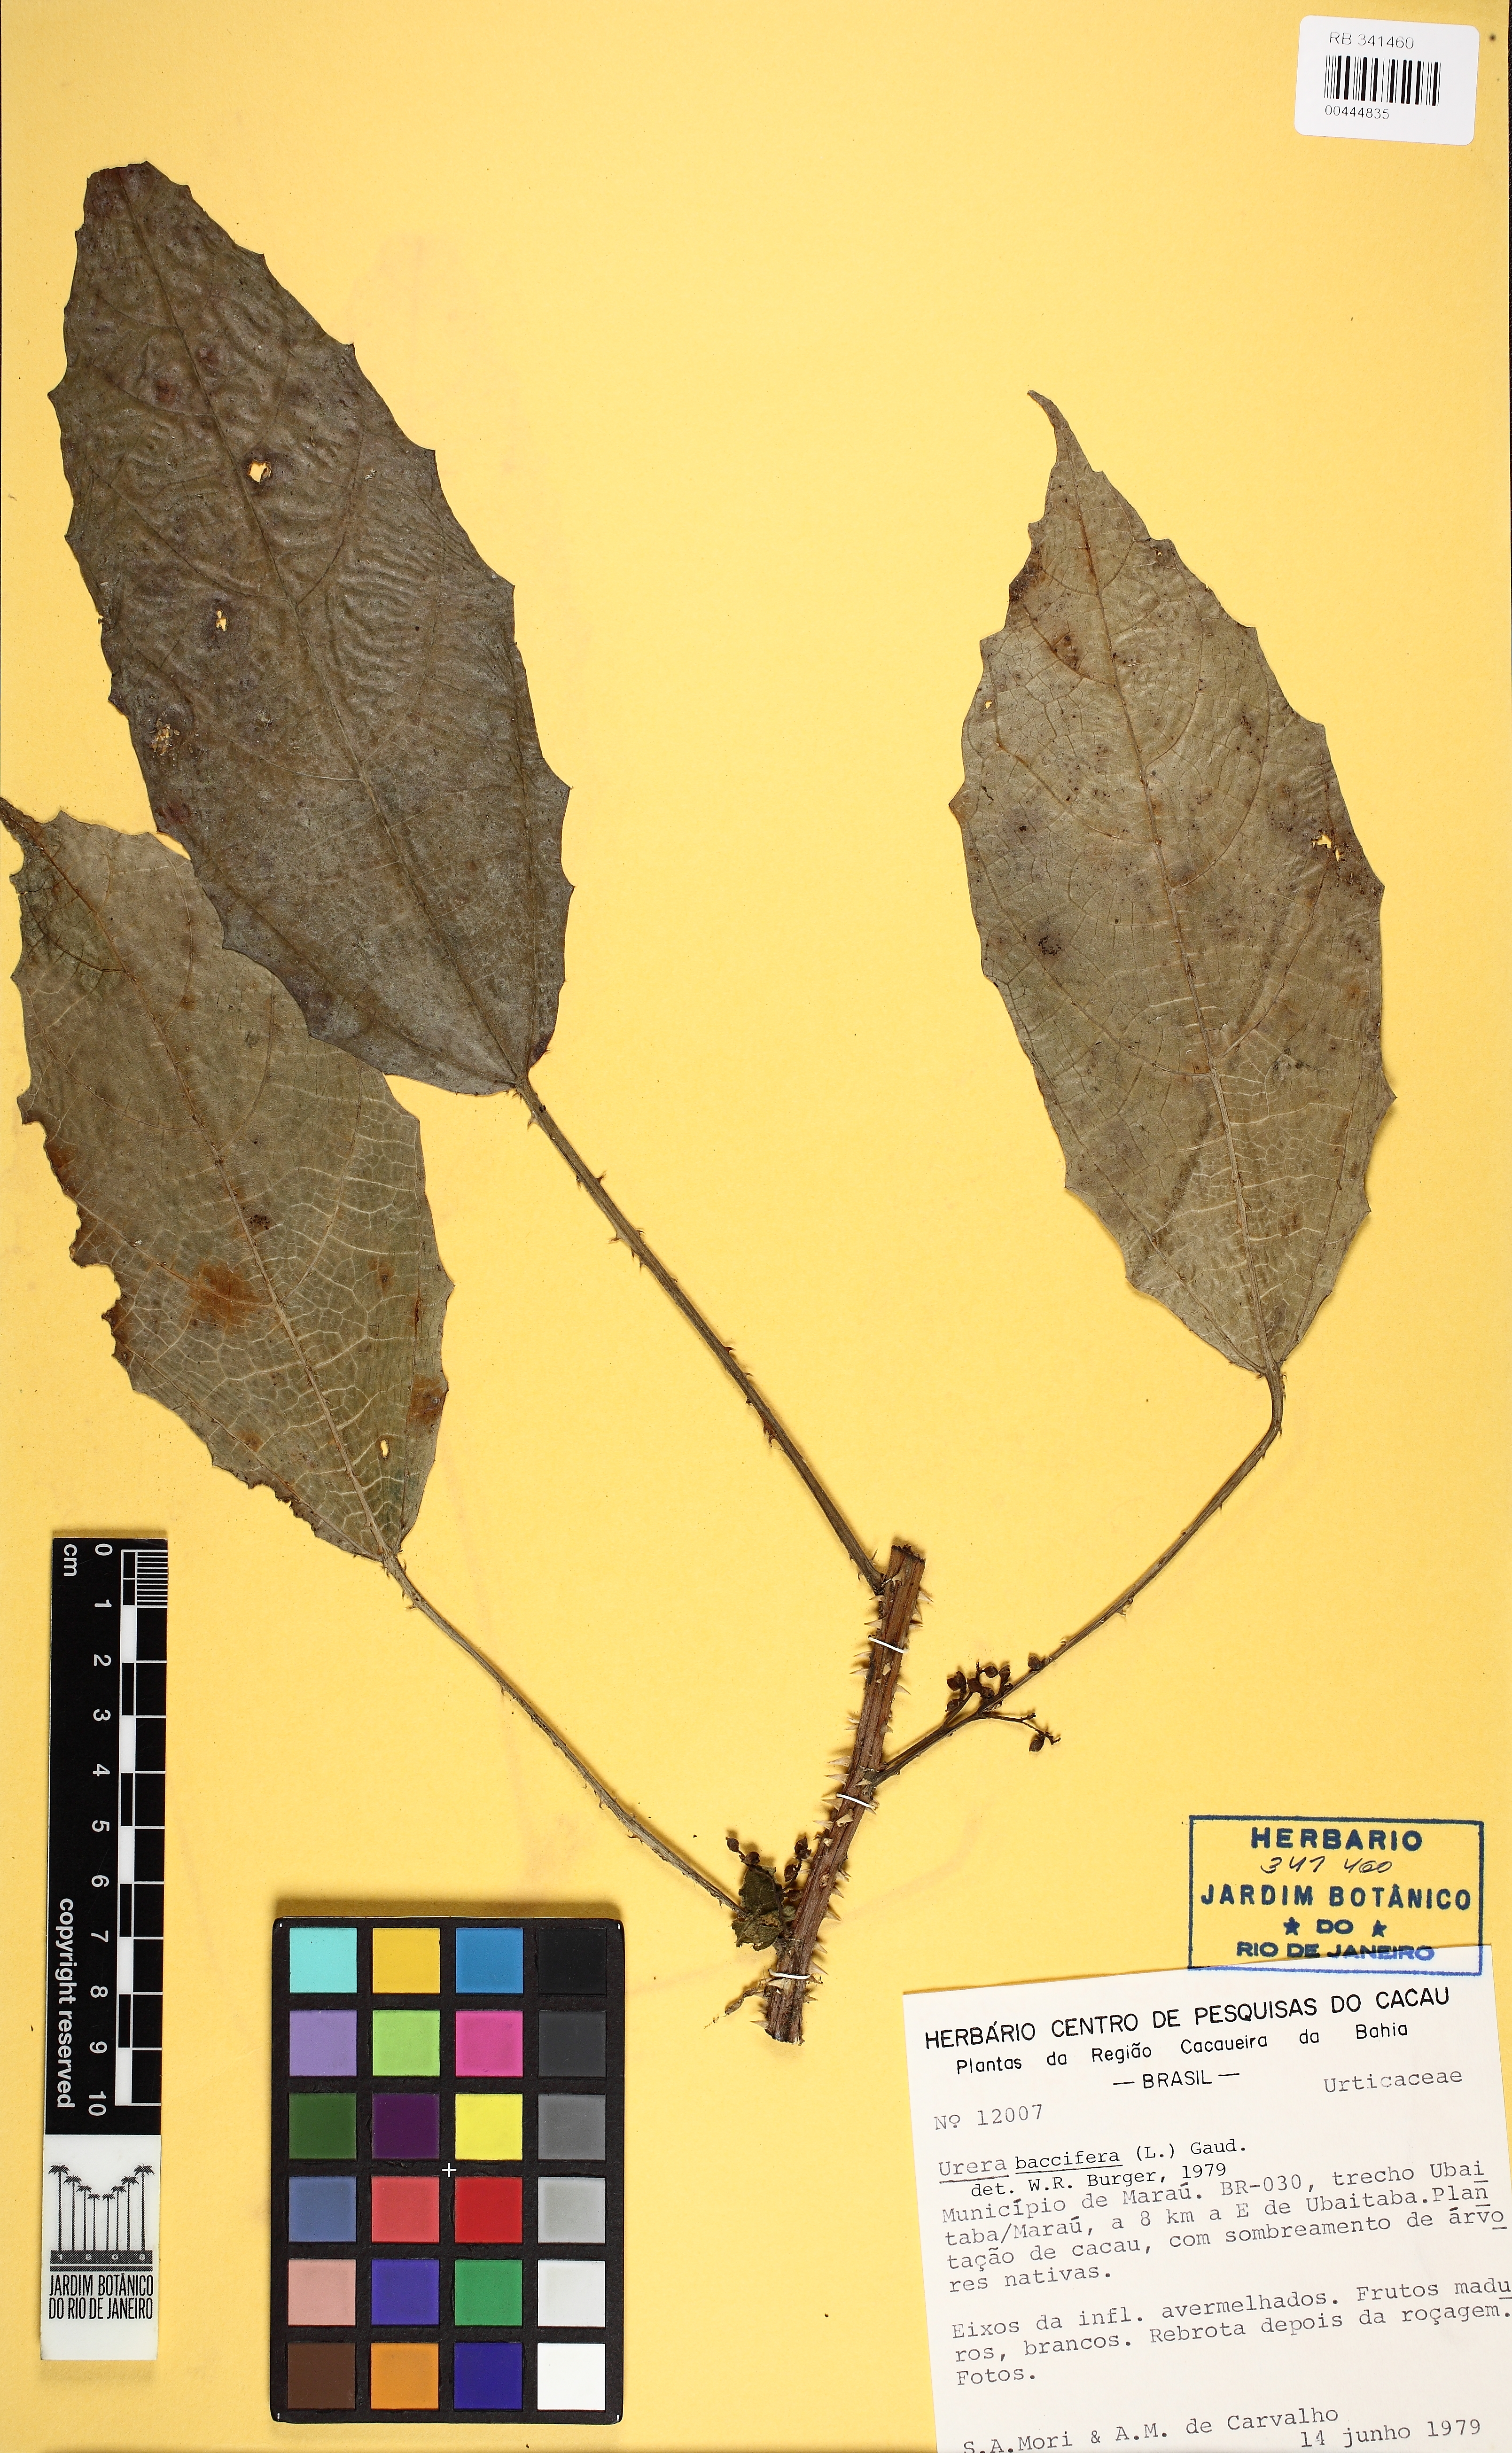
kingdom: Plantae
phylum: Tracheophyta
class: Magnoliopsida
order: Rosales
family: Urticaceae
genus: Urera
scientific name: Urera nitida
